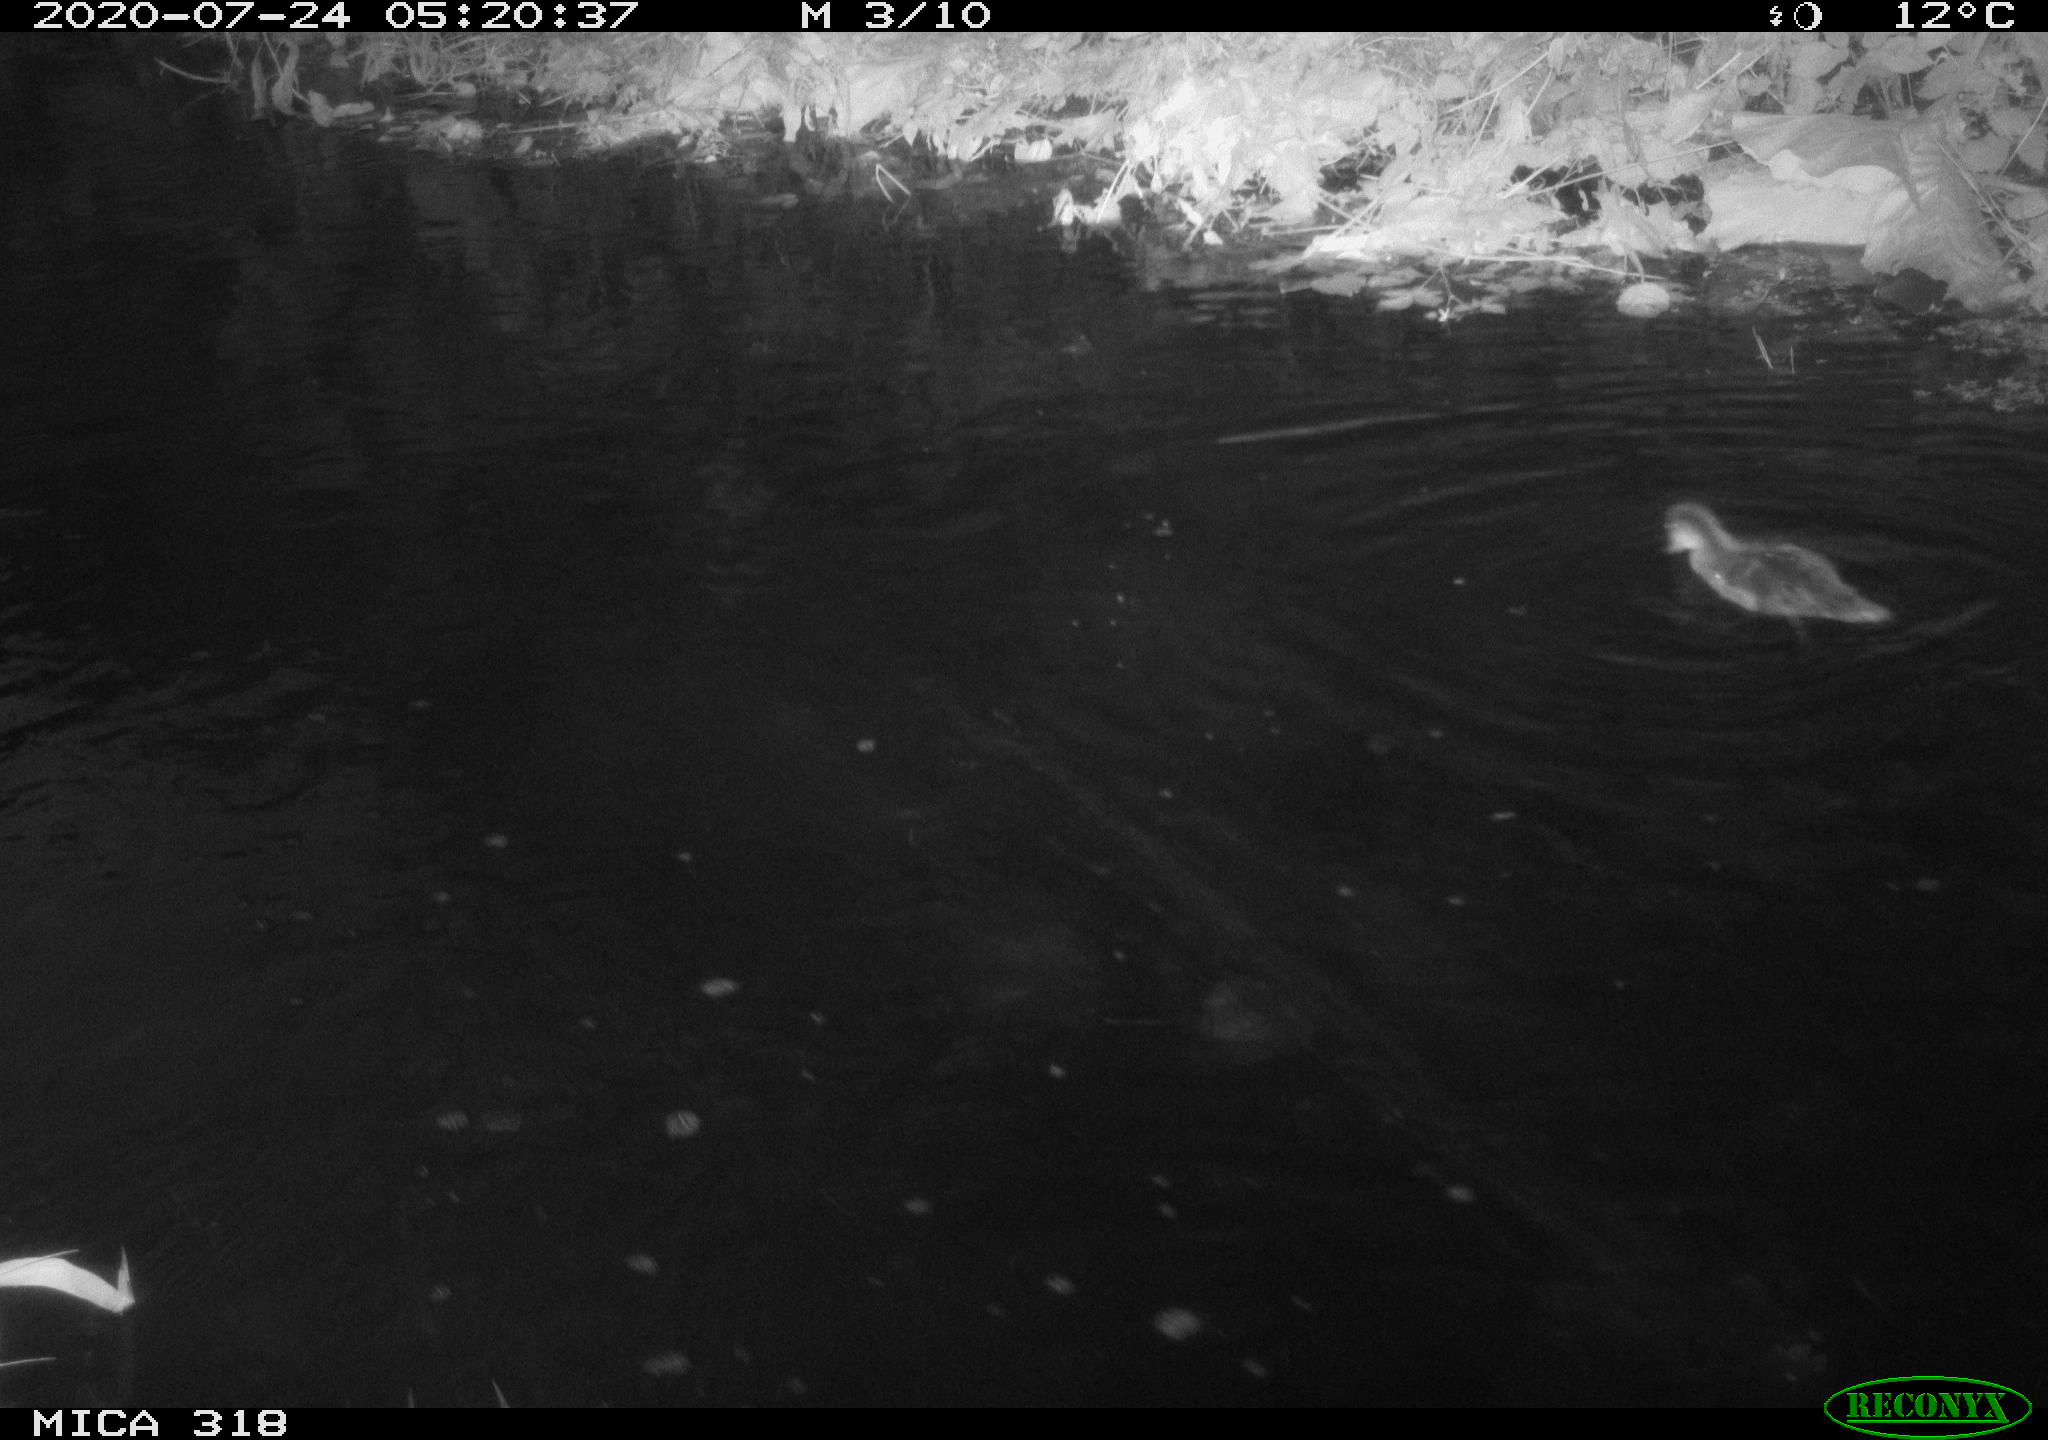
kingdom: Animalia
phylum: Chordata
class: Aves
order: Anseriformes
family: Anatidae
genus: Anas
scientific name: Anas platyrhynchos
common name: Mallard
